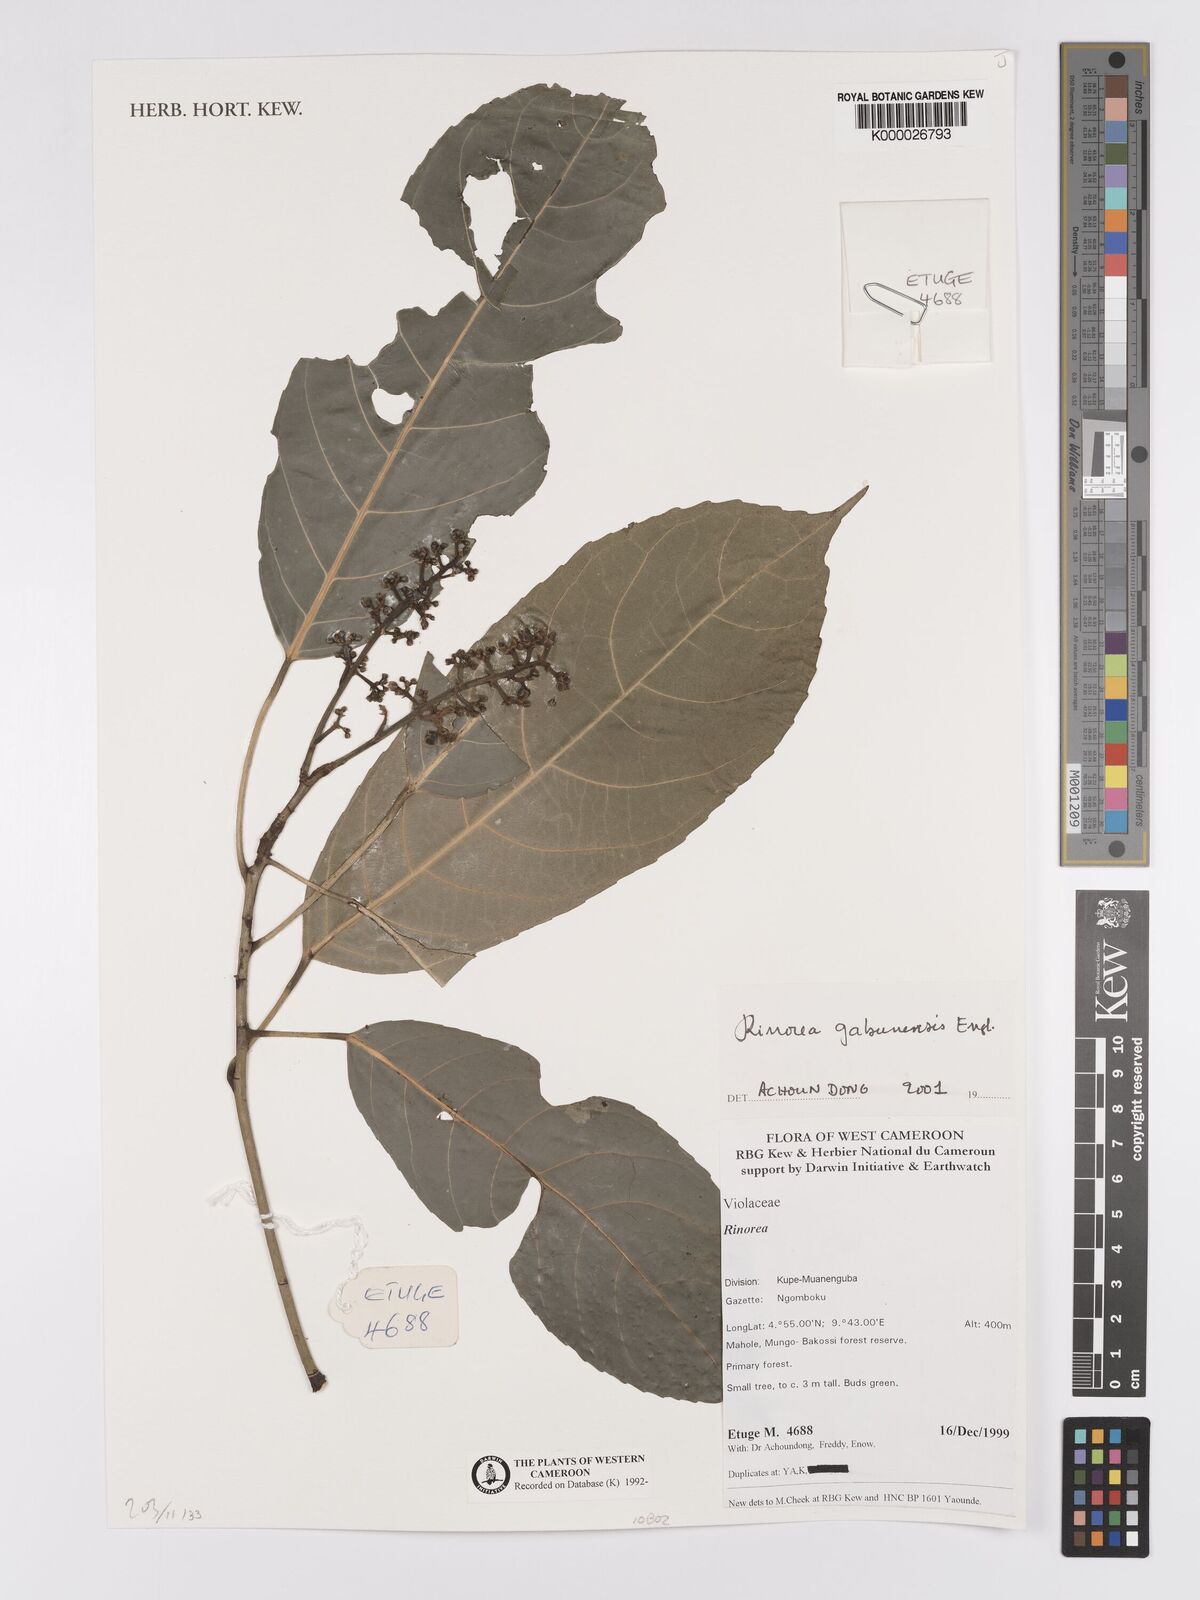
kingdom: Plantae
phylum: Tracheophyta
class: Magnoliopsida
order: Malpighiales
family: Violaceae
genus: Rinorea
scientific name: Rinorea gabunensis
